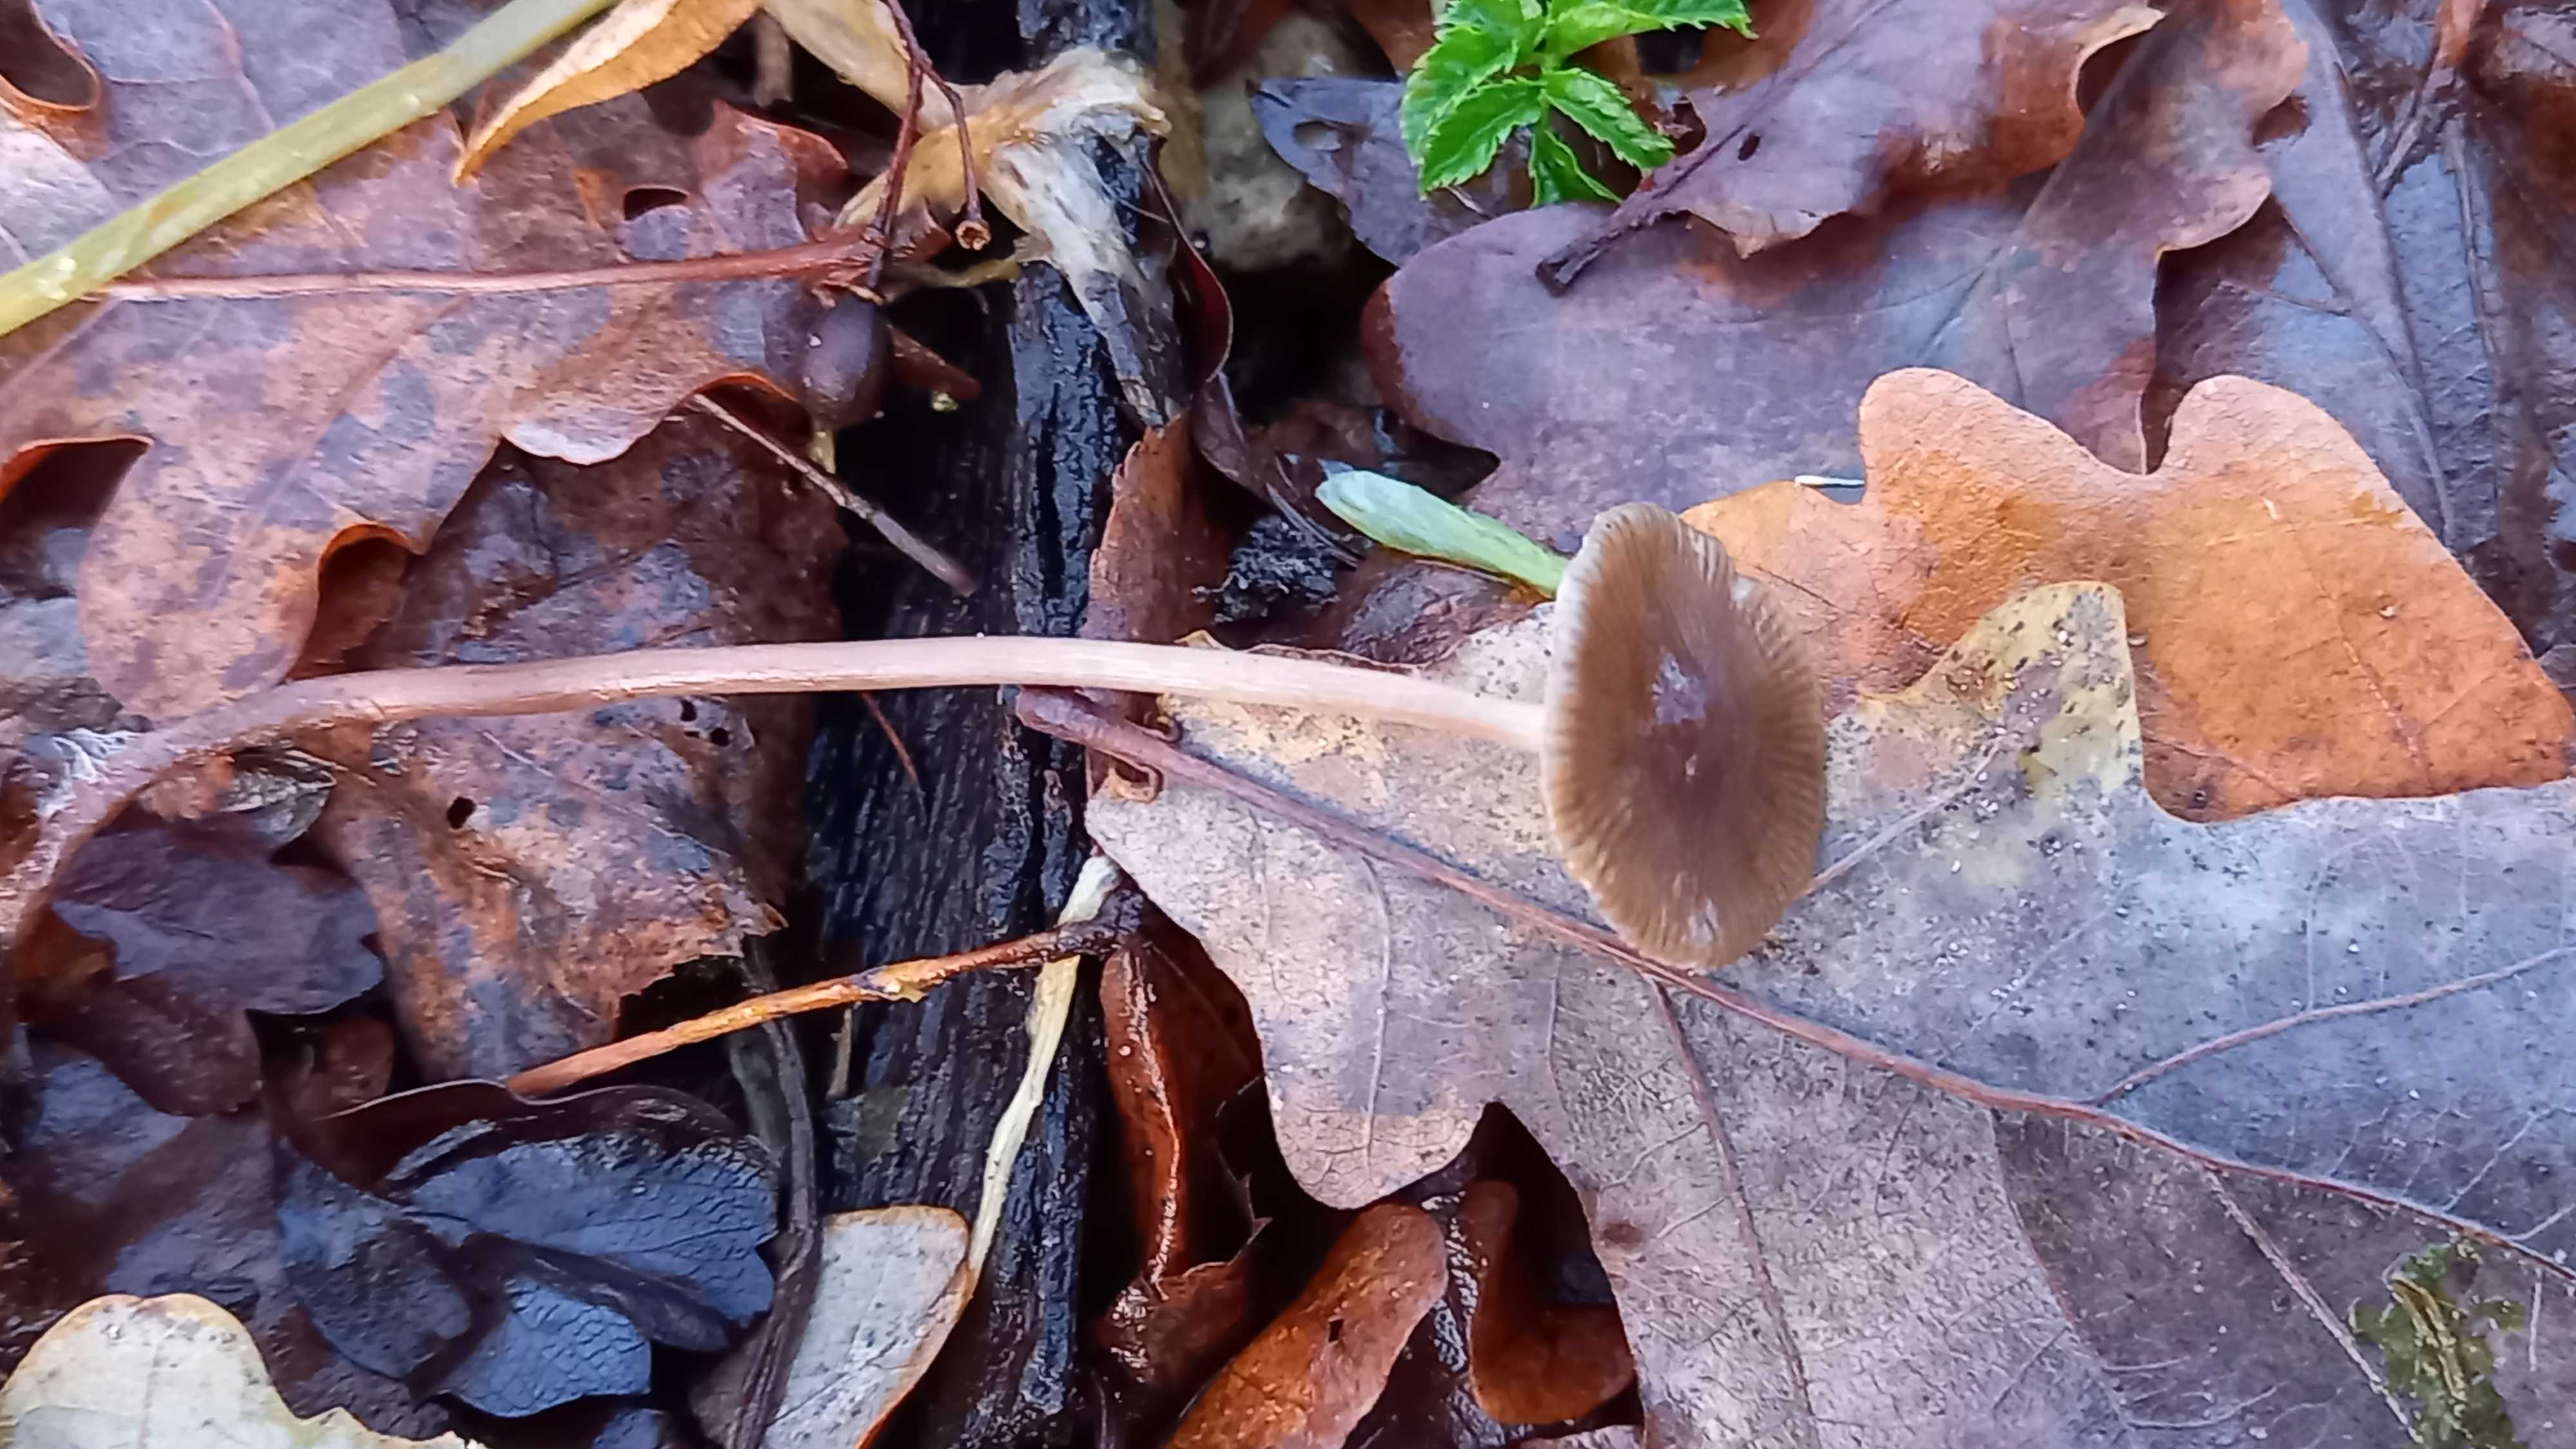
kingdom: Fungi
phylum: Basidiomycota
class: Agaricomycetes
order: Agaricales
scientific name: Agaricales
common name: champignonordenen
